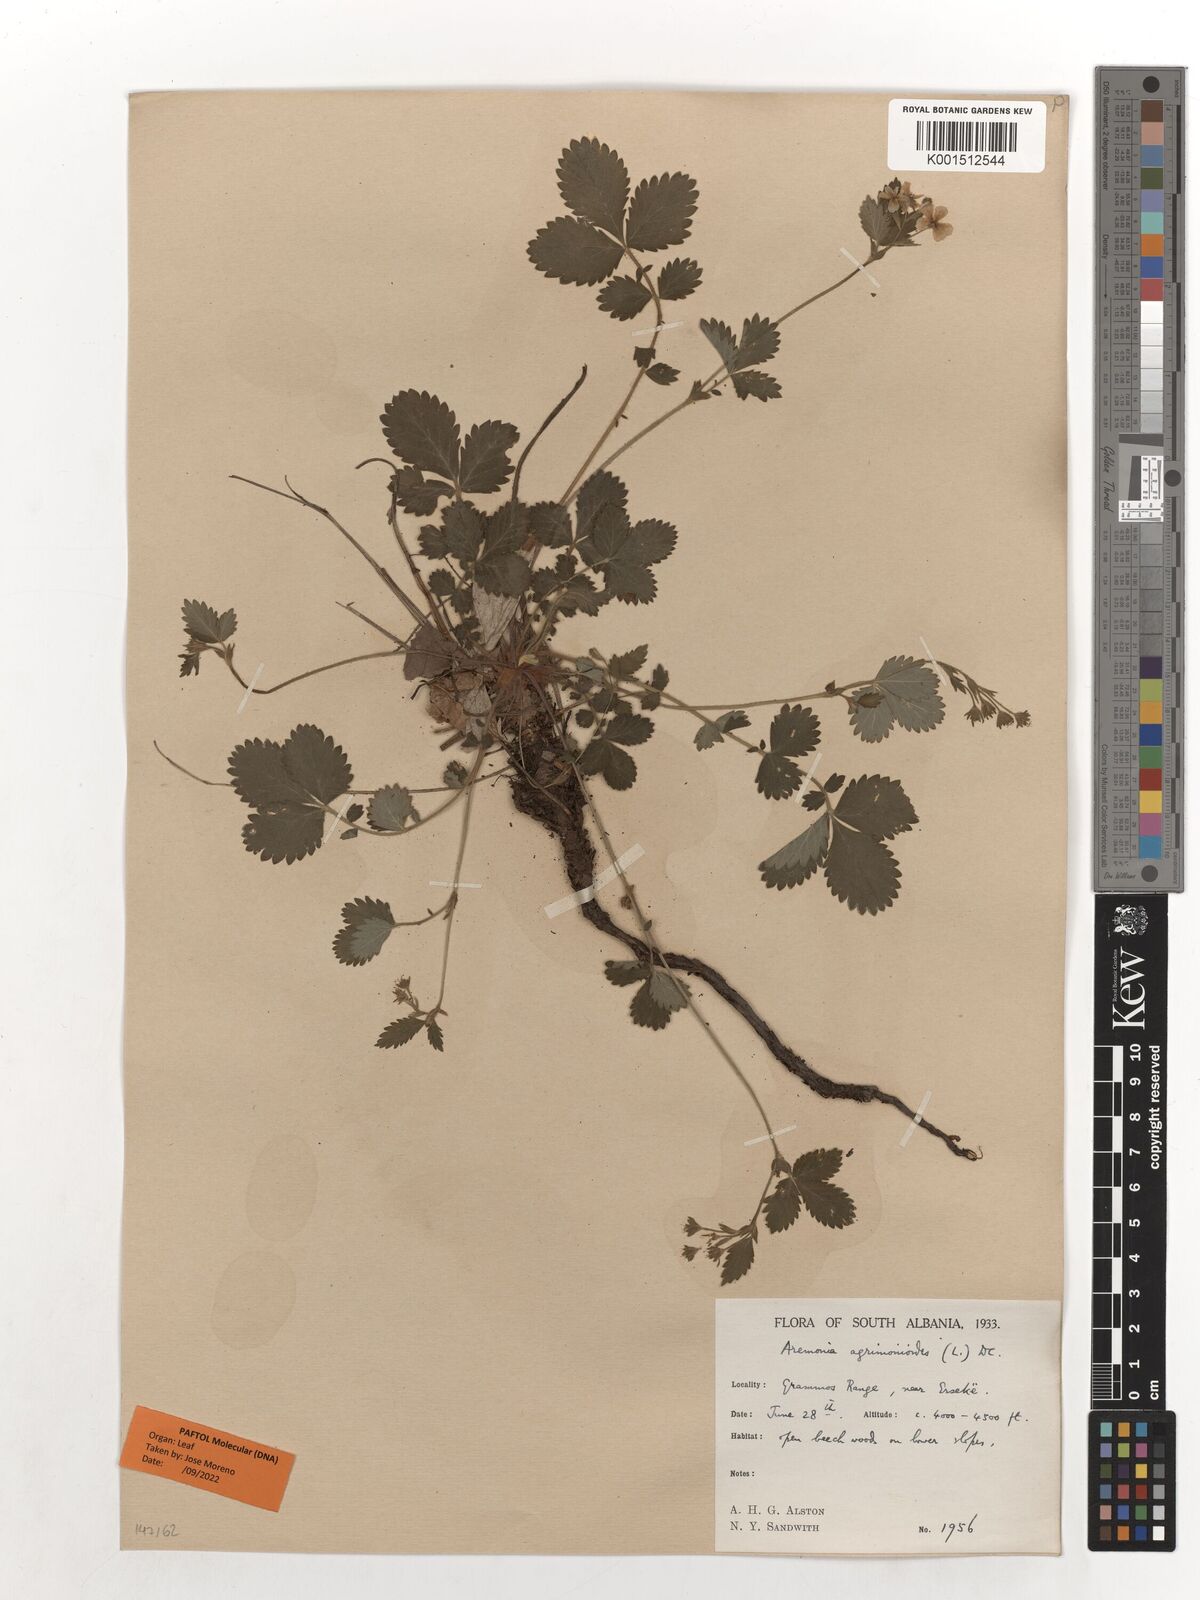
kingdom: Plantae
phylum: Tracheophyta
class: Magnoliopsida
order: Rosales
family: Rosaceae
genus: Aremonia
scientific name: Aremonia agrimonoides
